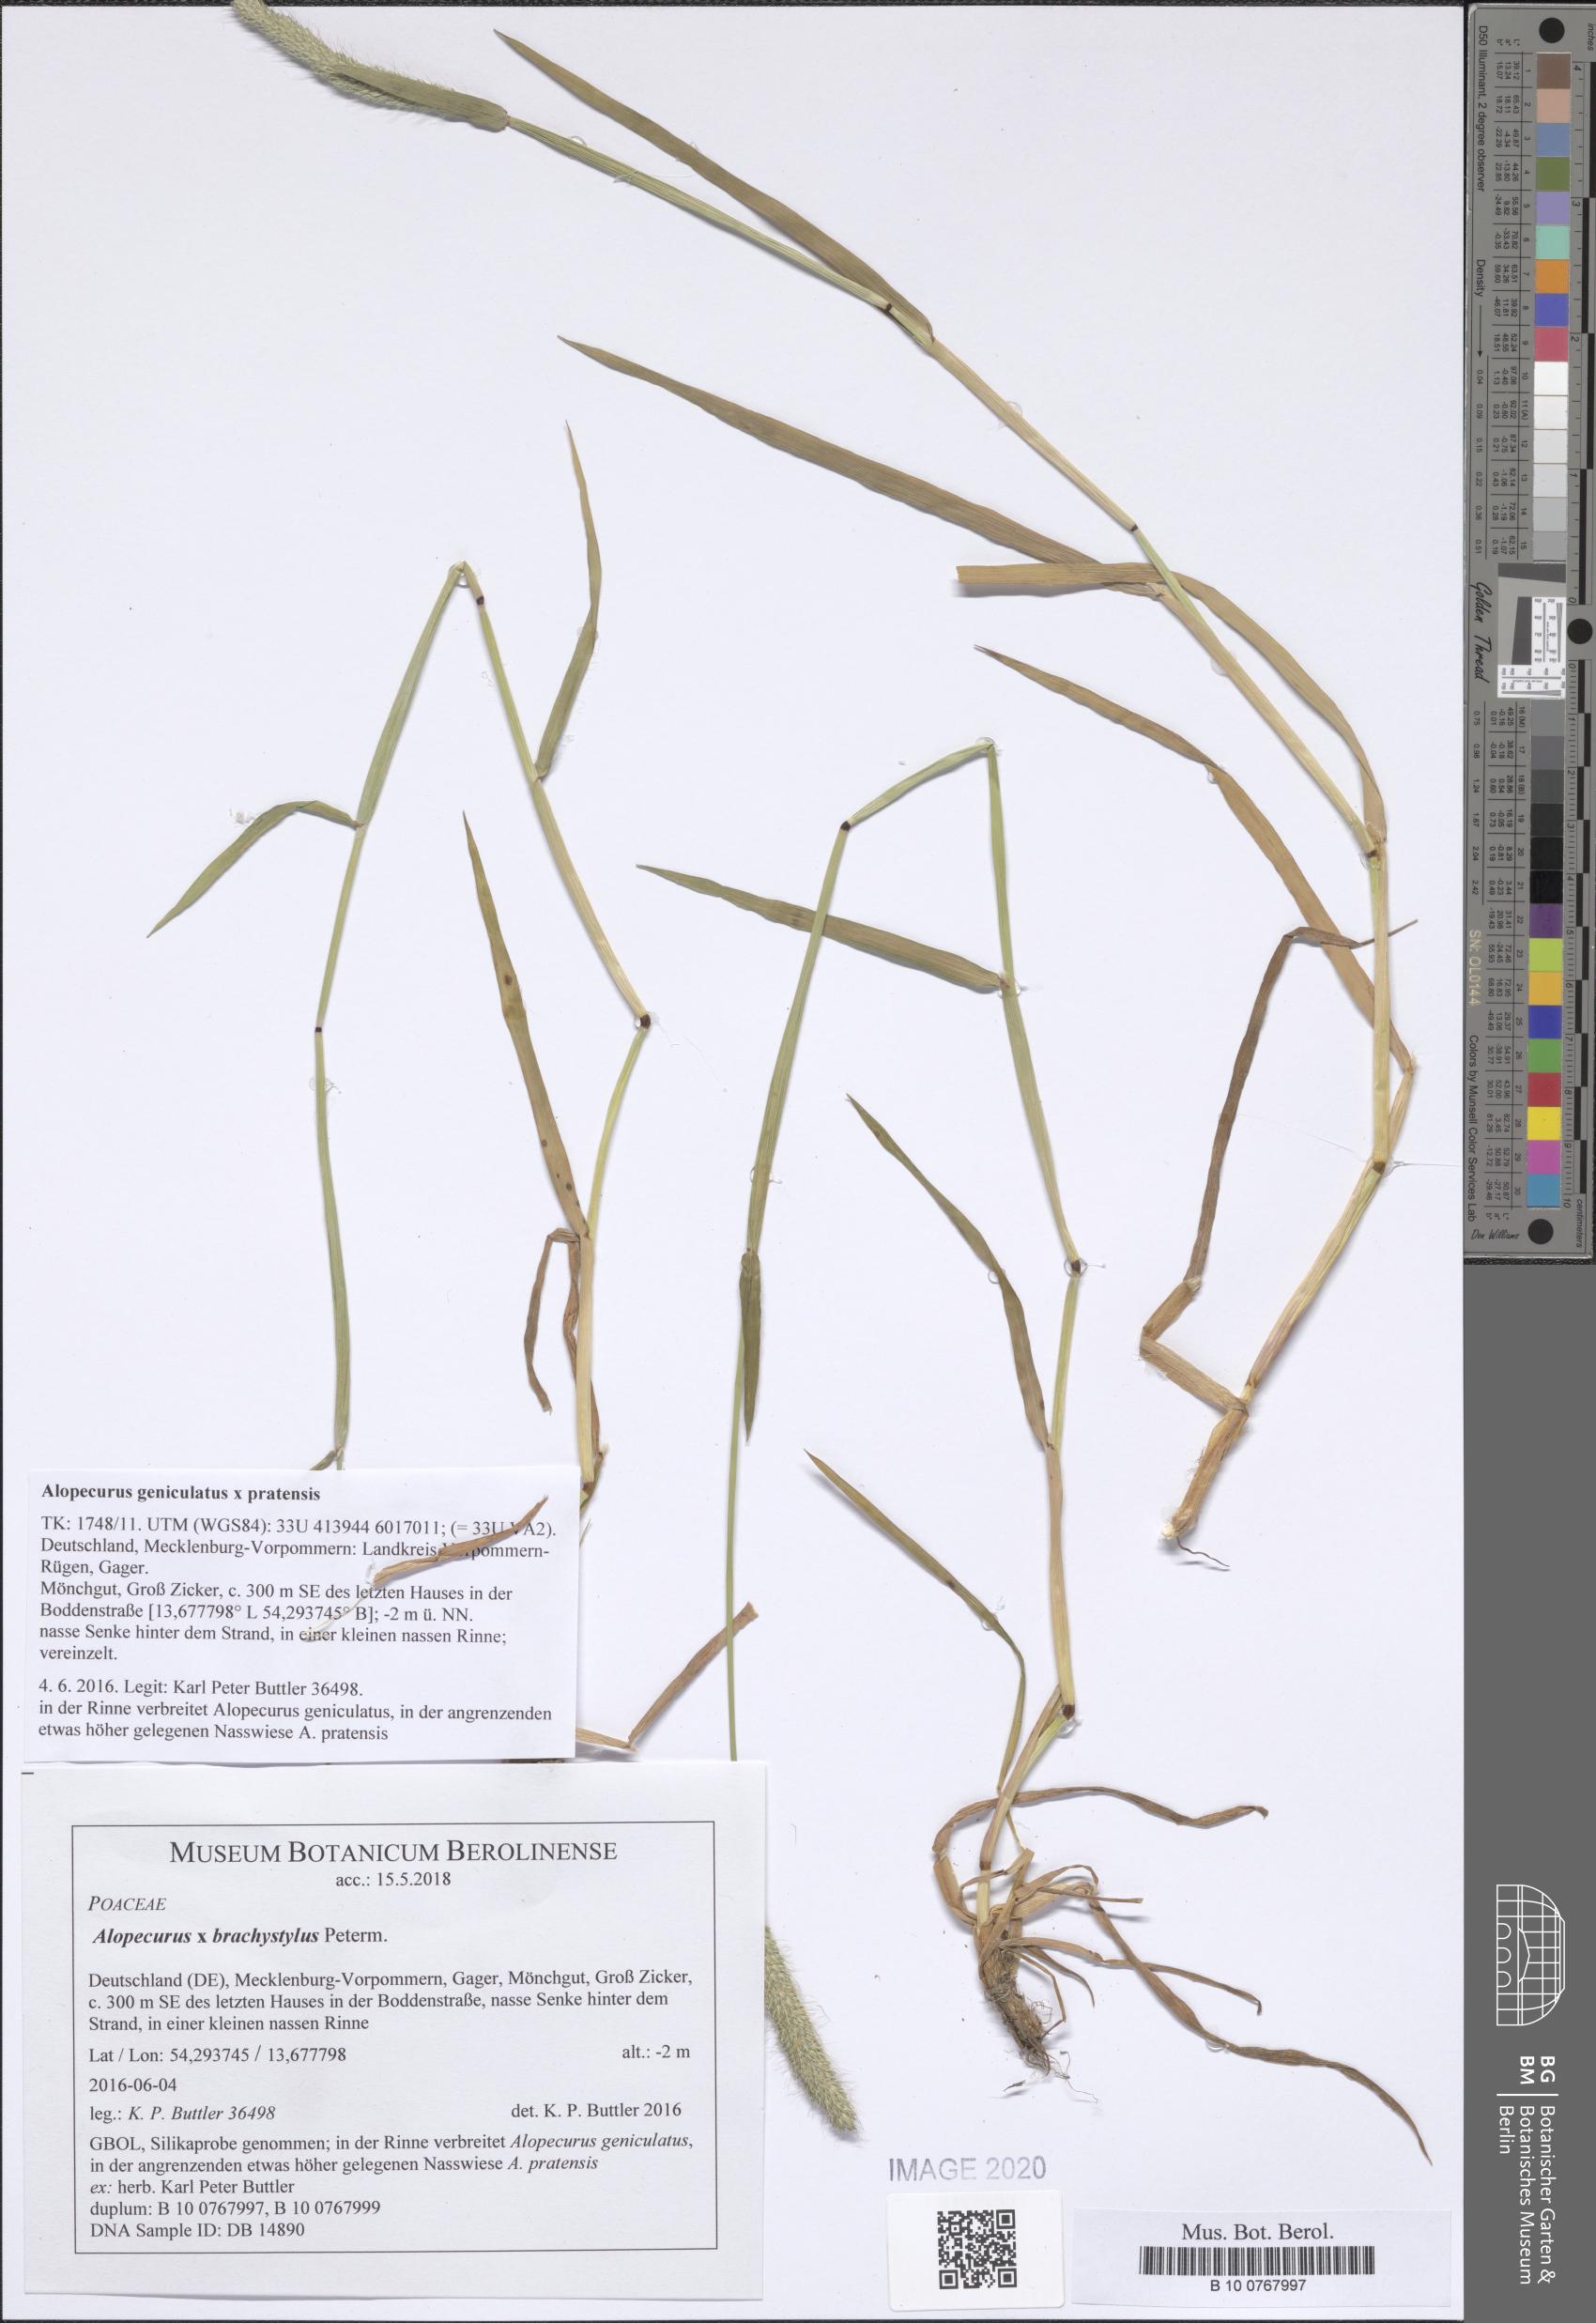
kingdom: Plantae
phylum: Tracheophyta
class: Liliopsida
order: Poales
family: Poaceae
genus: Alopecurus
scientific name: Alopecurus brachystylus
